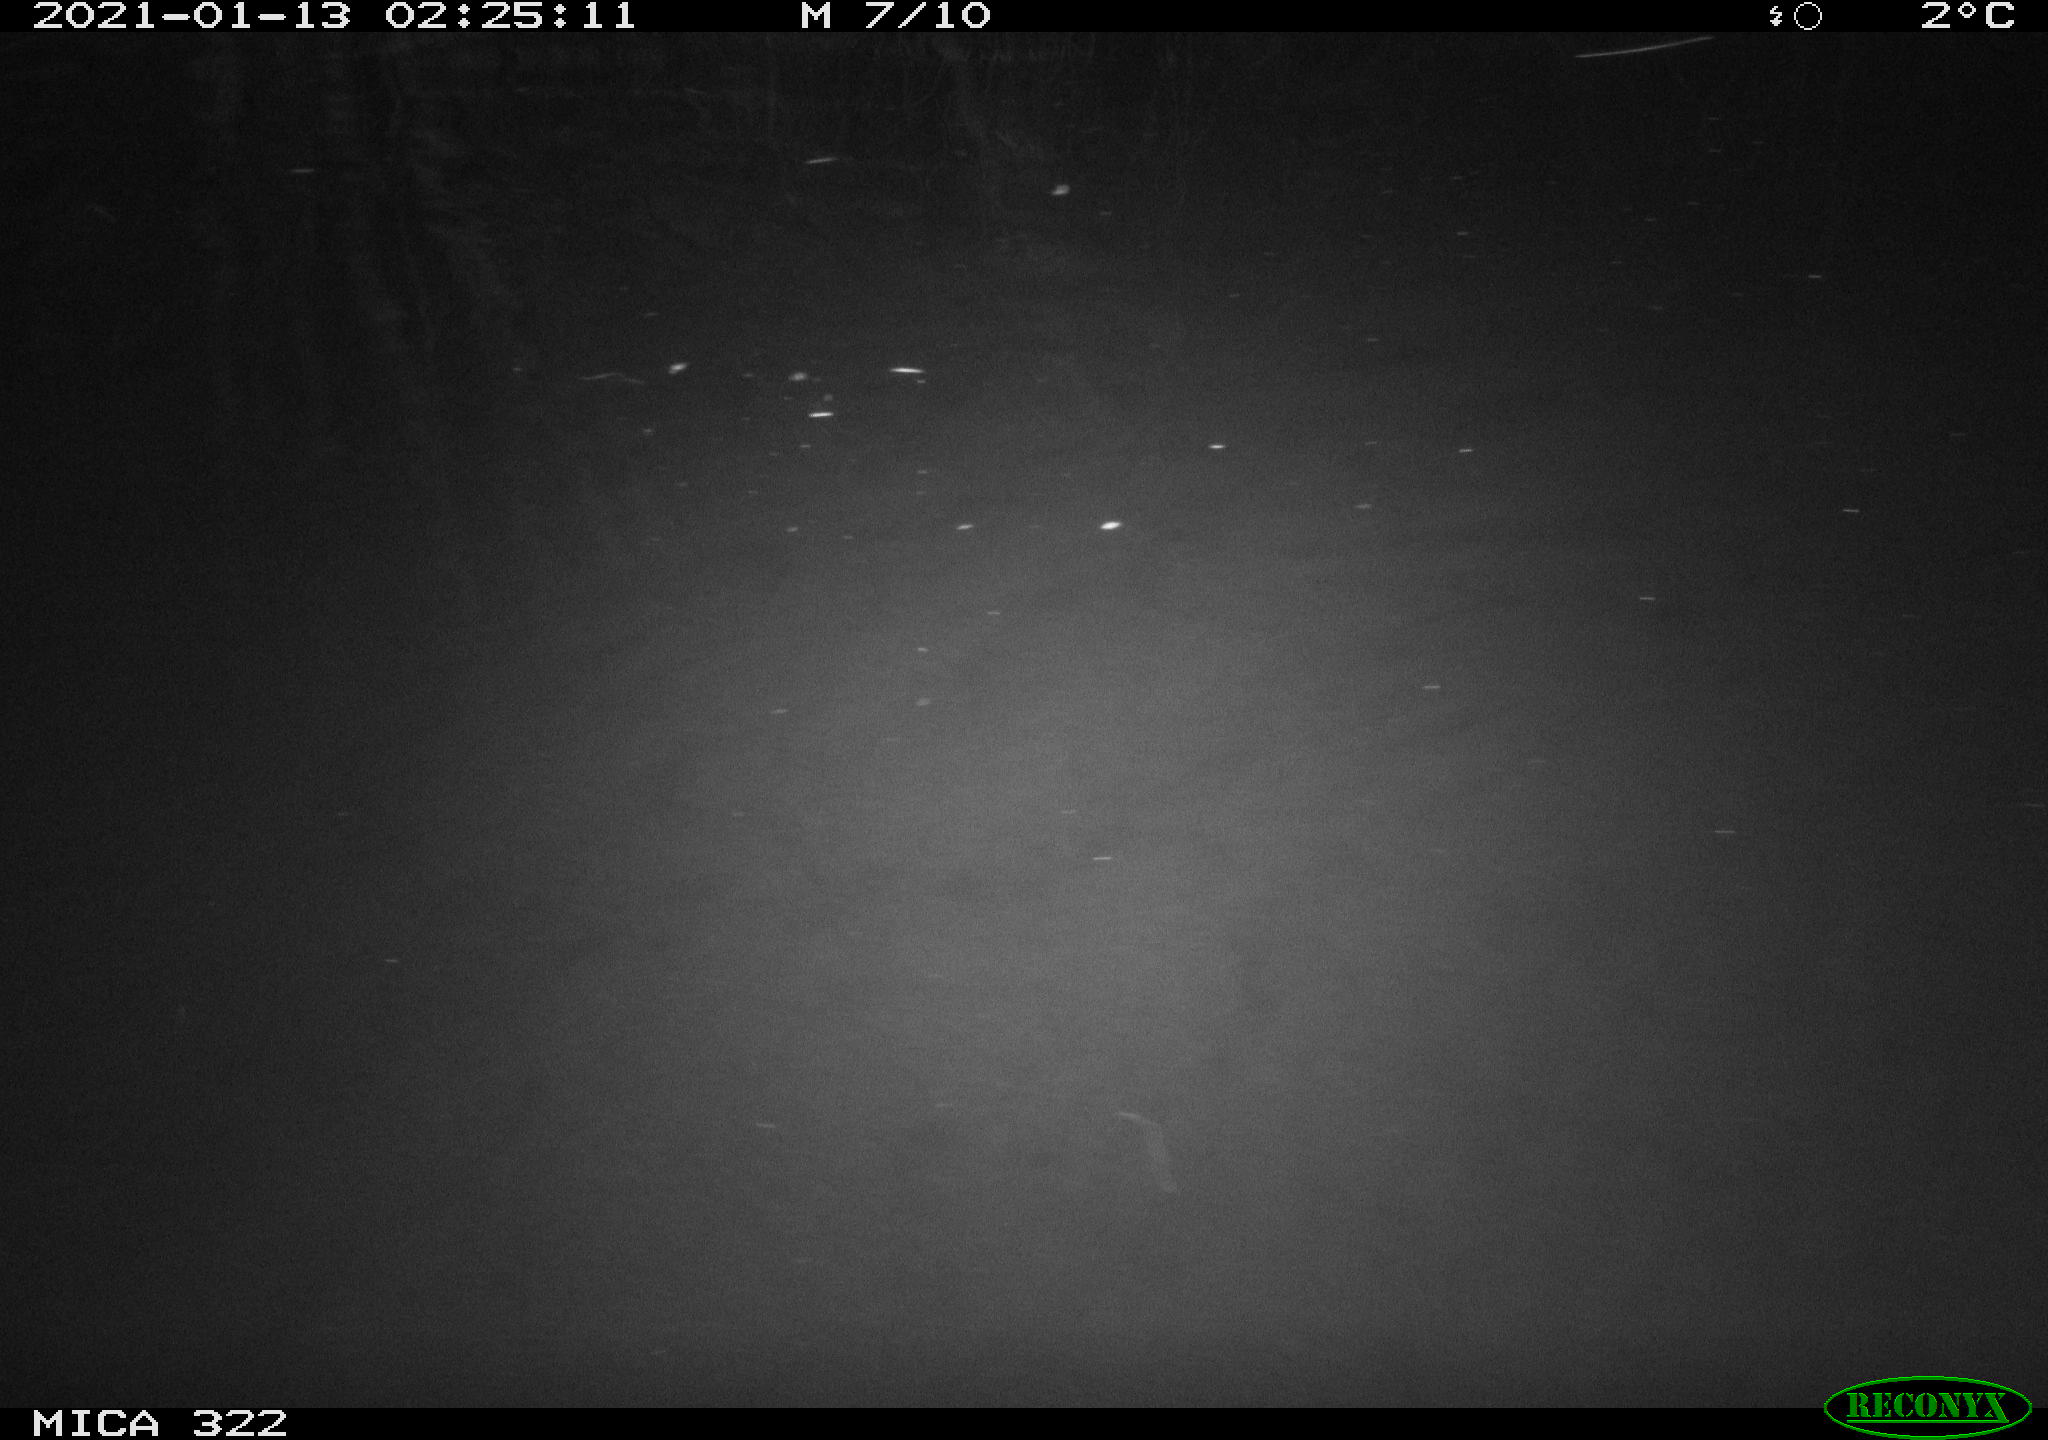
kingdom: Animalia
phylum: Chordata
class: Mammalia
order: Rodentia
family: Muridae
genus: Rattus
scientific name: Rattus norvegicus
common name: Brown rat
